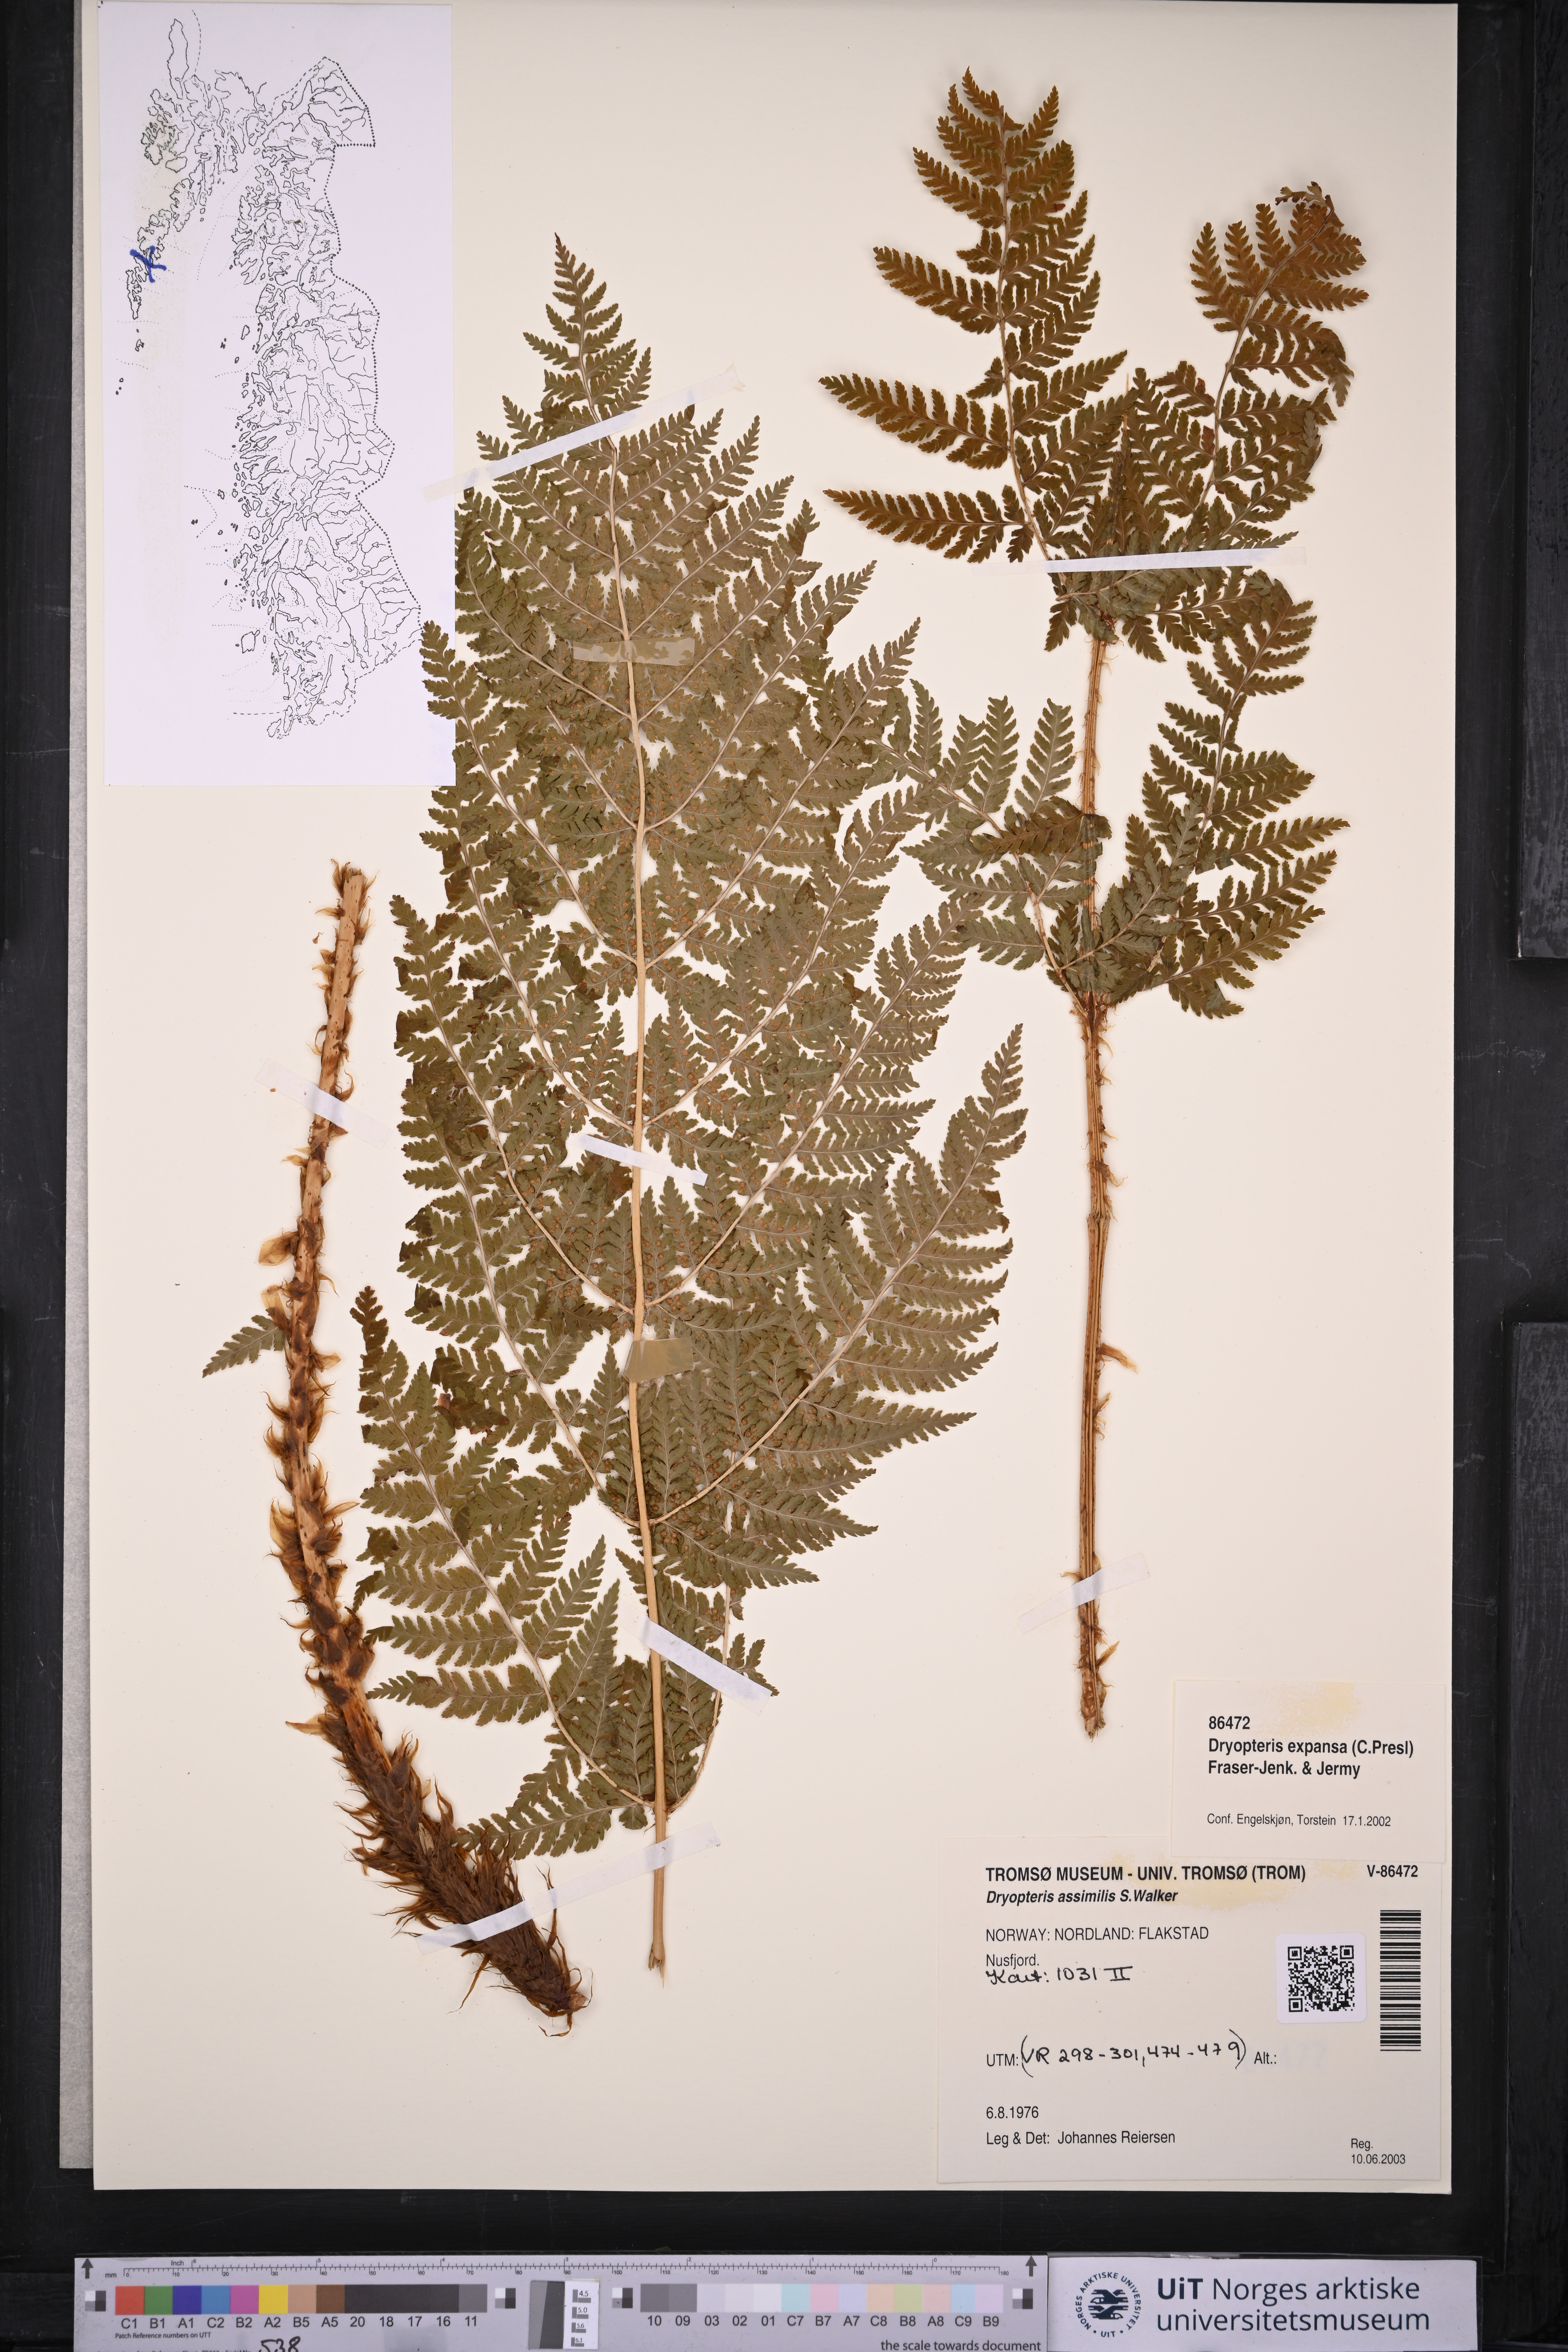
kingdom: Plantae
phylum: Tracheophyta
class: Polypodiopsida
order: Polypodiales
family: Dryopteridaceae
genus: Dryopteris
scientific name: Dryopteris expansa
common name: Northern buckler fern
